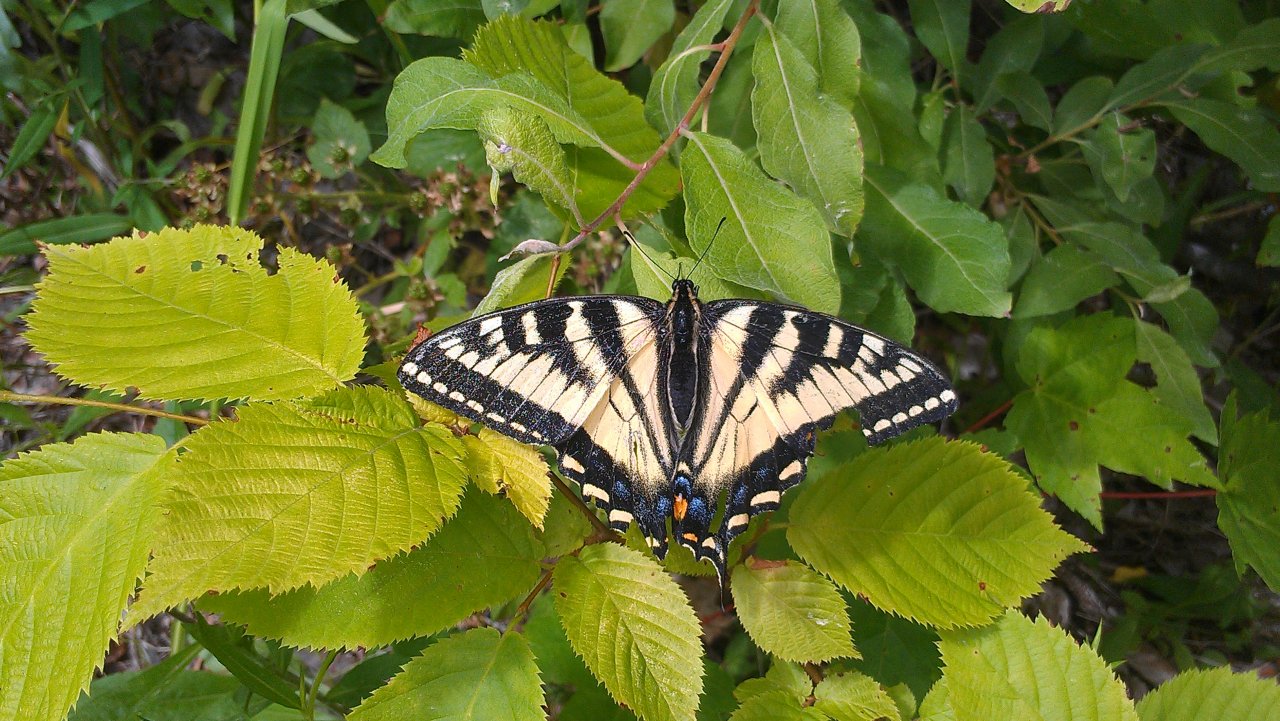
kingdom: Animalia
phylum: Arthropoda
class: Insecta
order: Lepidoptera
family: Papilionidae
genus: Pterourus
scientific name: Pterourus canadensis
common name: Canadian Tiger Swallowtail
